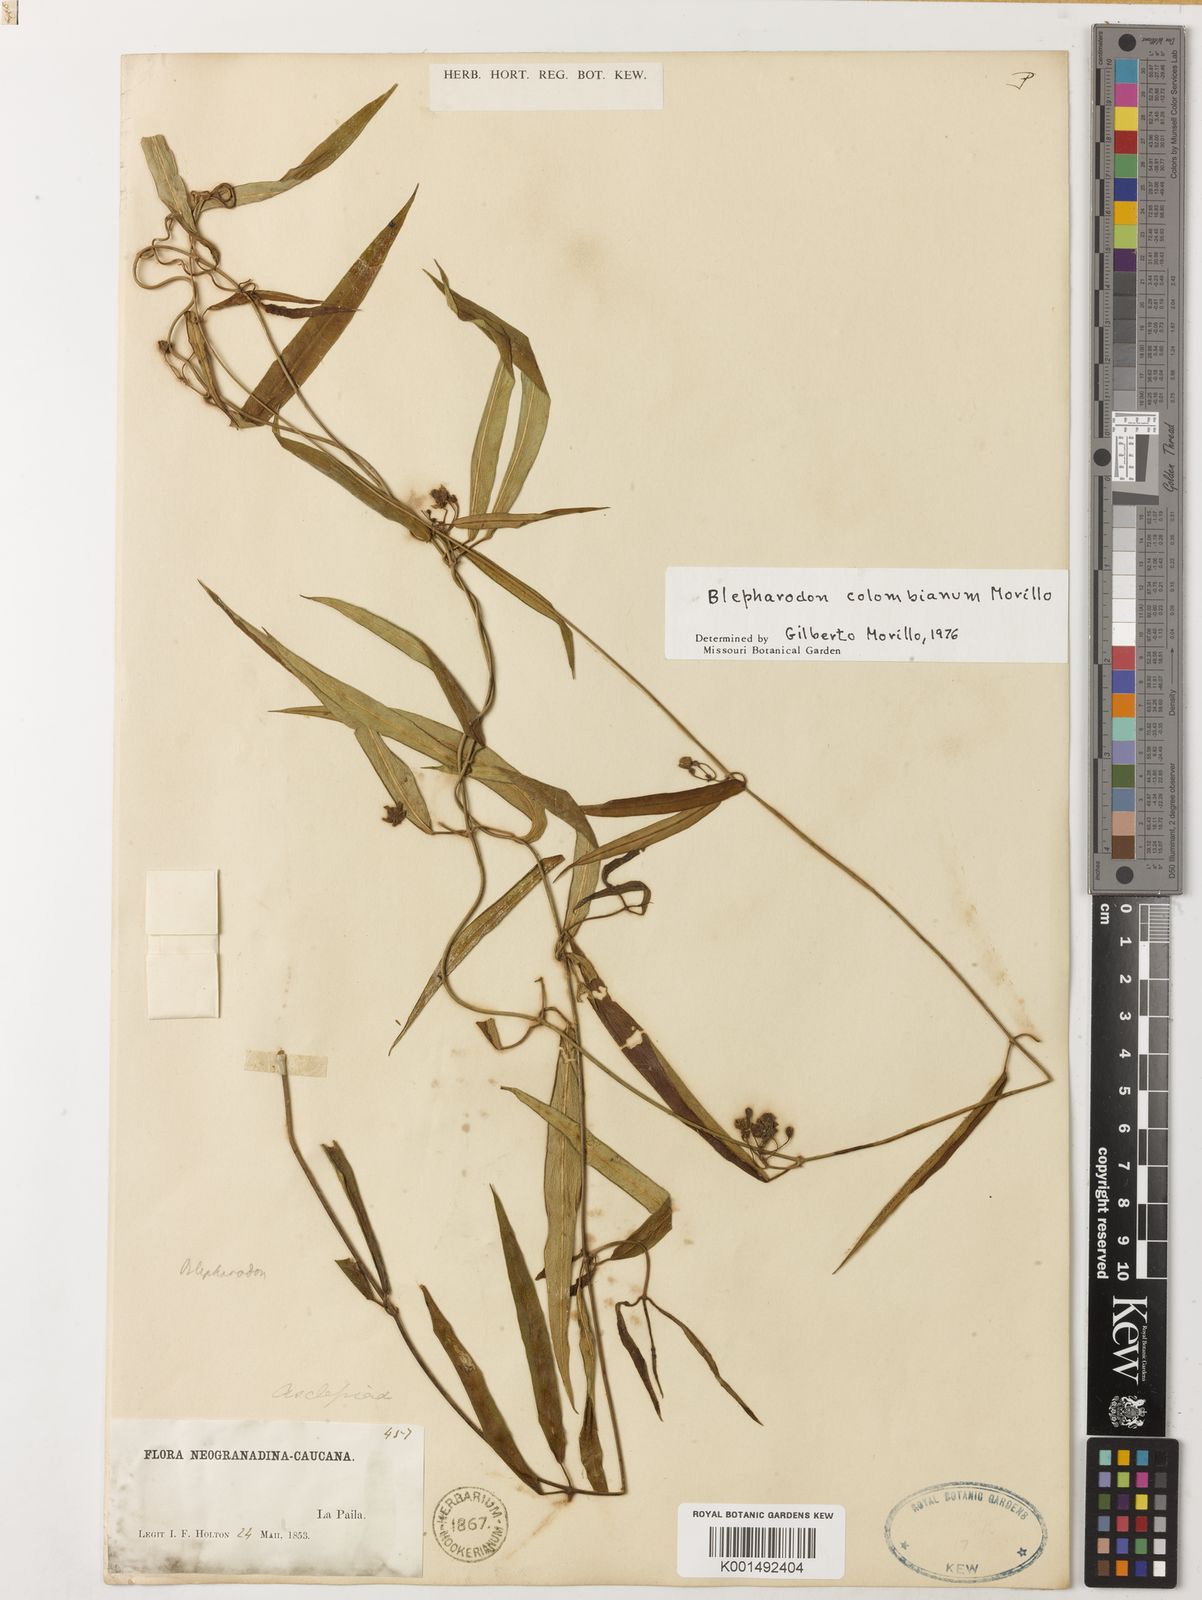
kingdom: Plantae
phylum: Tracheophyta
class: Magnoliopsida
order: Gentianales
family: Apocynaceae
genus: Blepharodon
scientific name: Blepharodon colombianum
